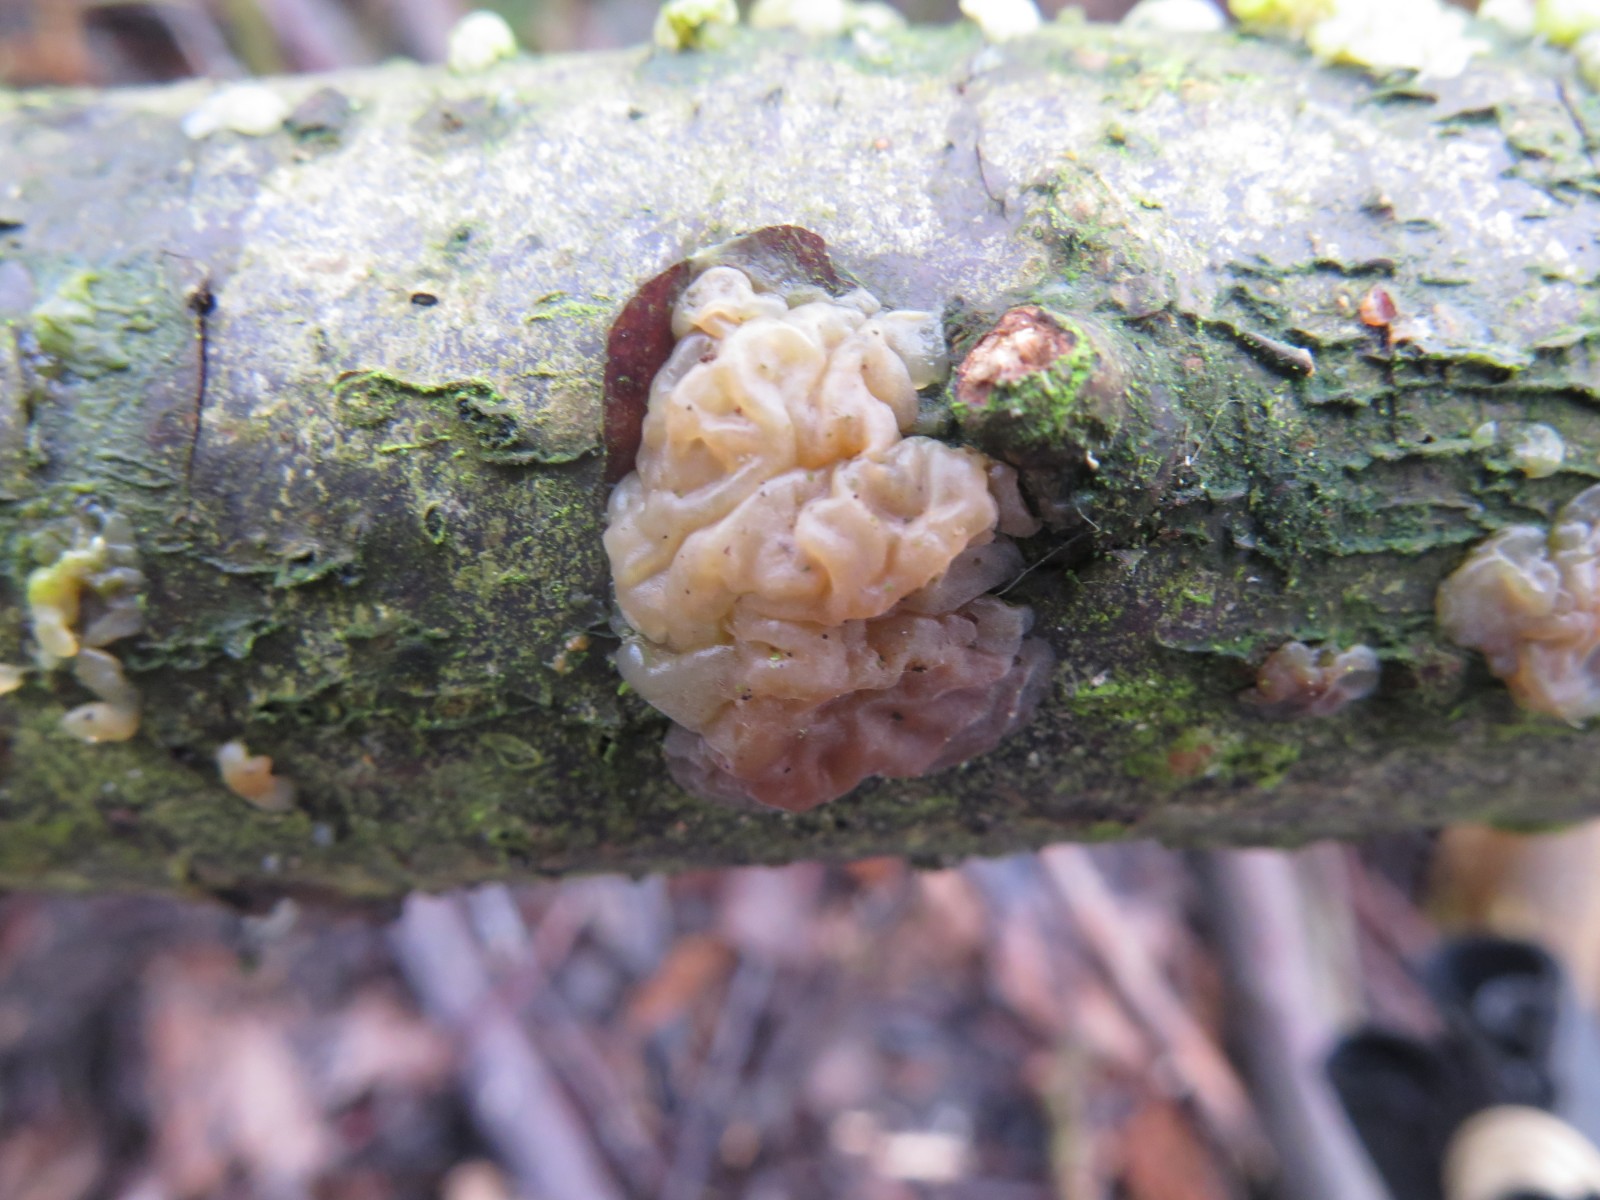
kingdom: Fungi
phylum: Basidiomycota
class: Agaricomycetes
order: Auriculariales
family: Hyaloriaceae
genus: Myxarium
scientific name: Myxarium
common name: bævretop
